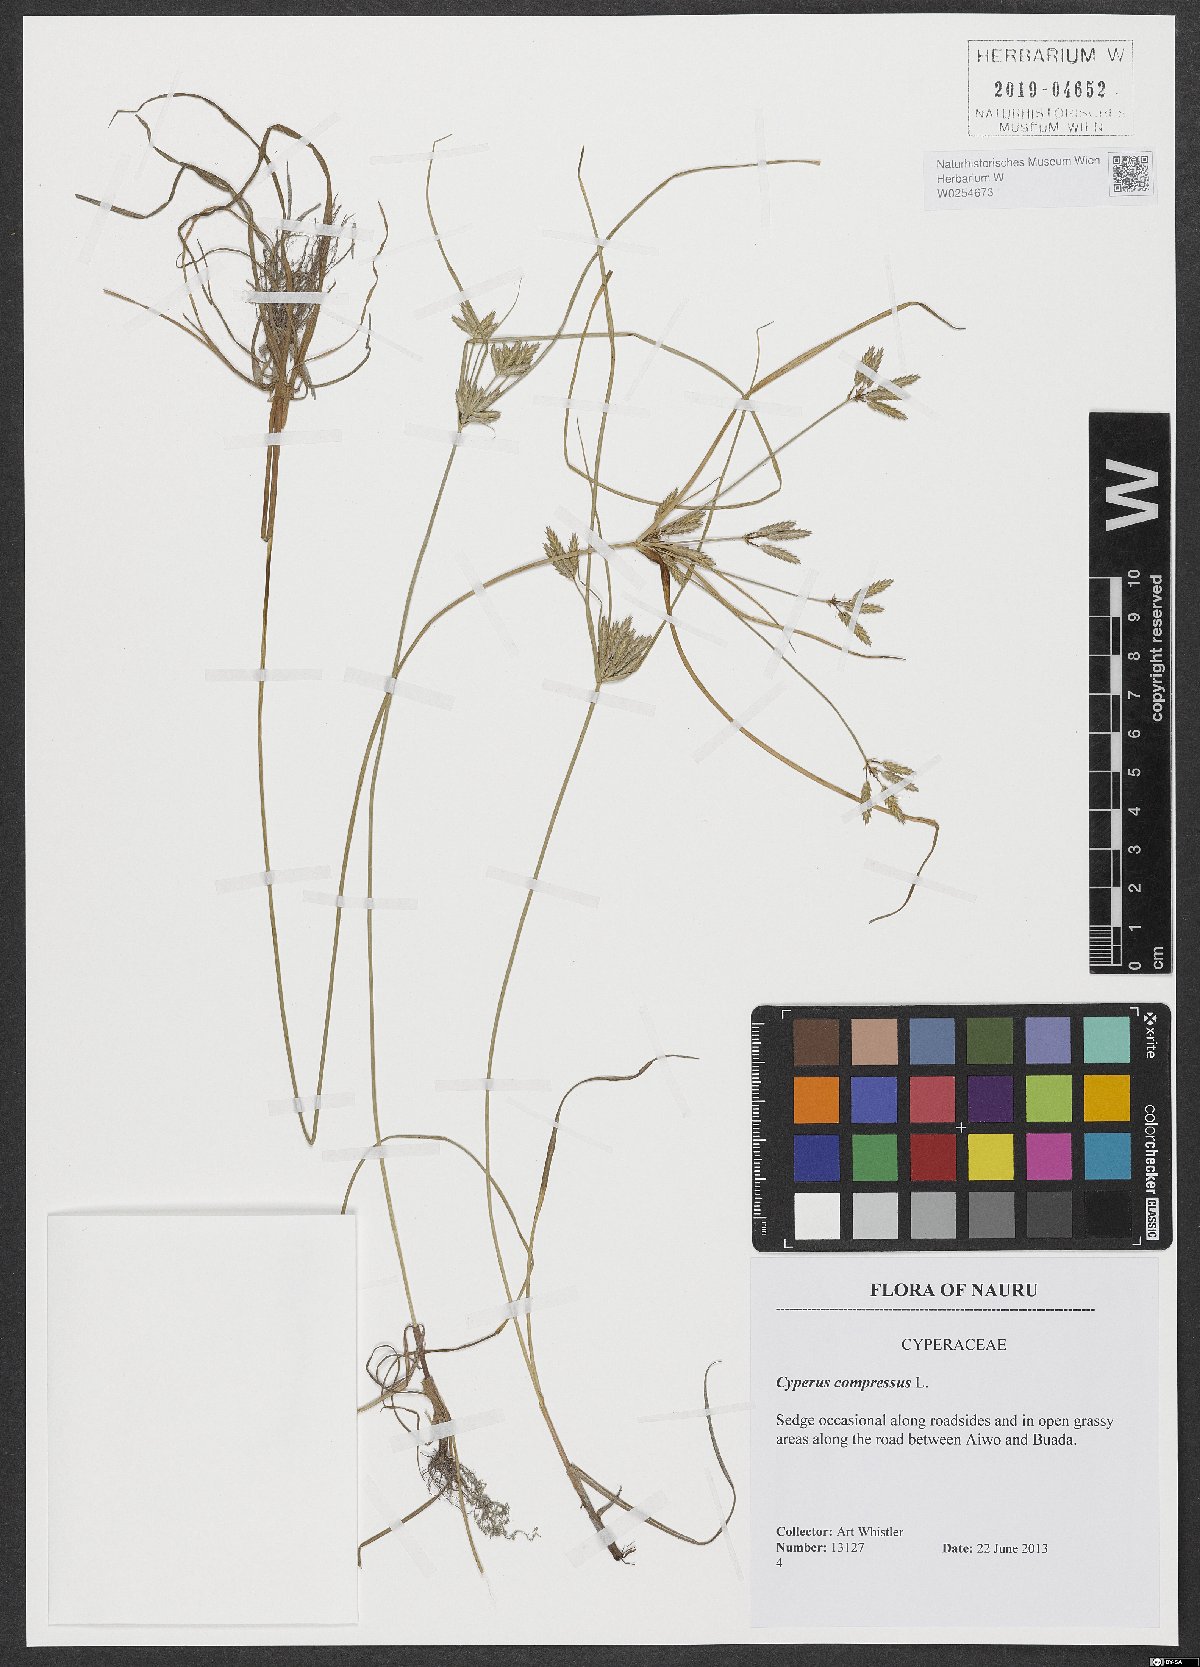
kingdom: Plantae
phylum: Tracheophyta
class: Liliopsida
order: Poales
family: Cyperaceae
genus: Cyperus
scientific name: Cyperus compressus
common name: Poorland flatsedge
